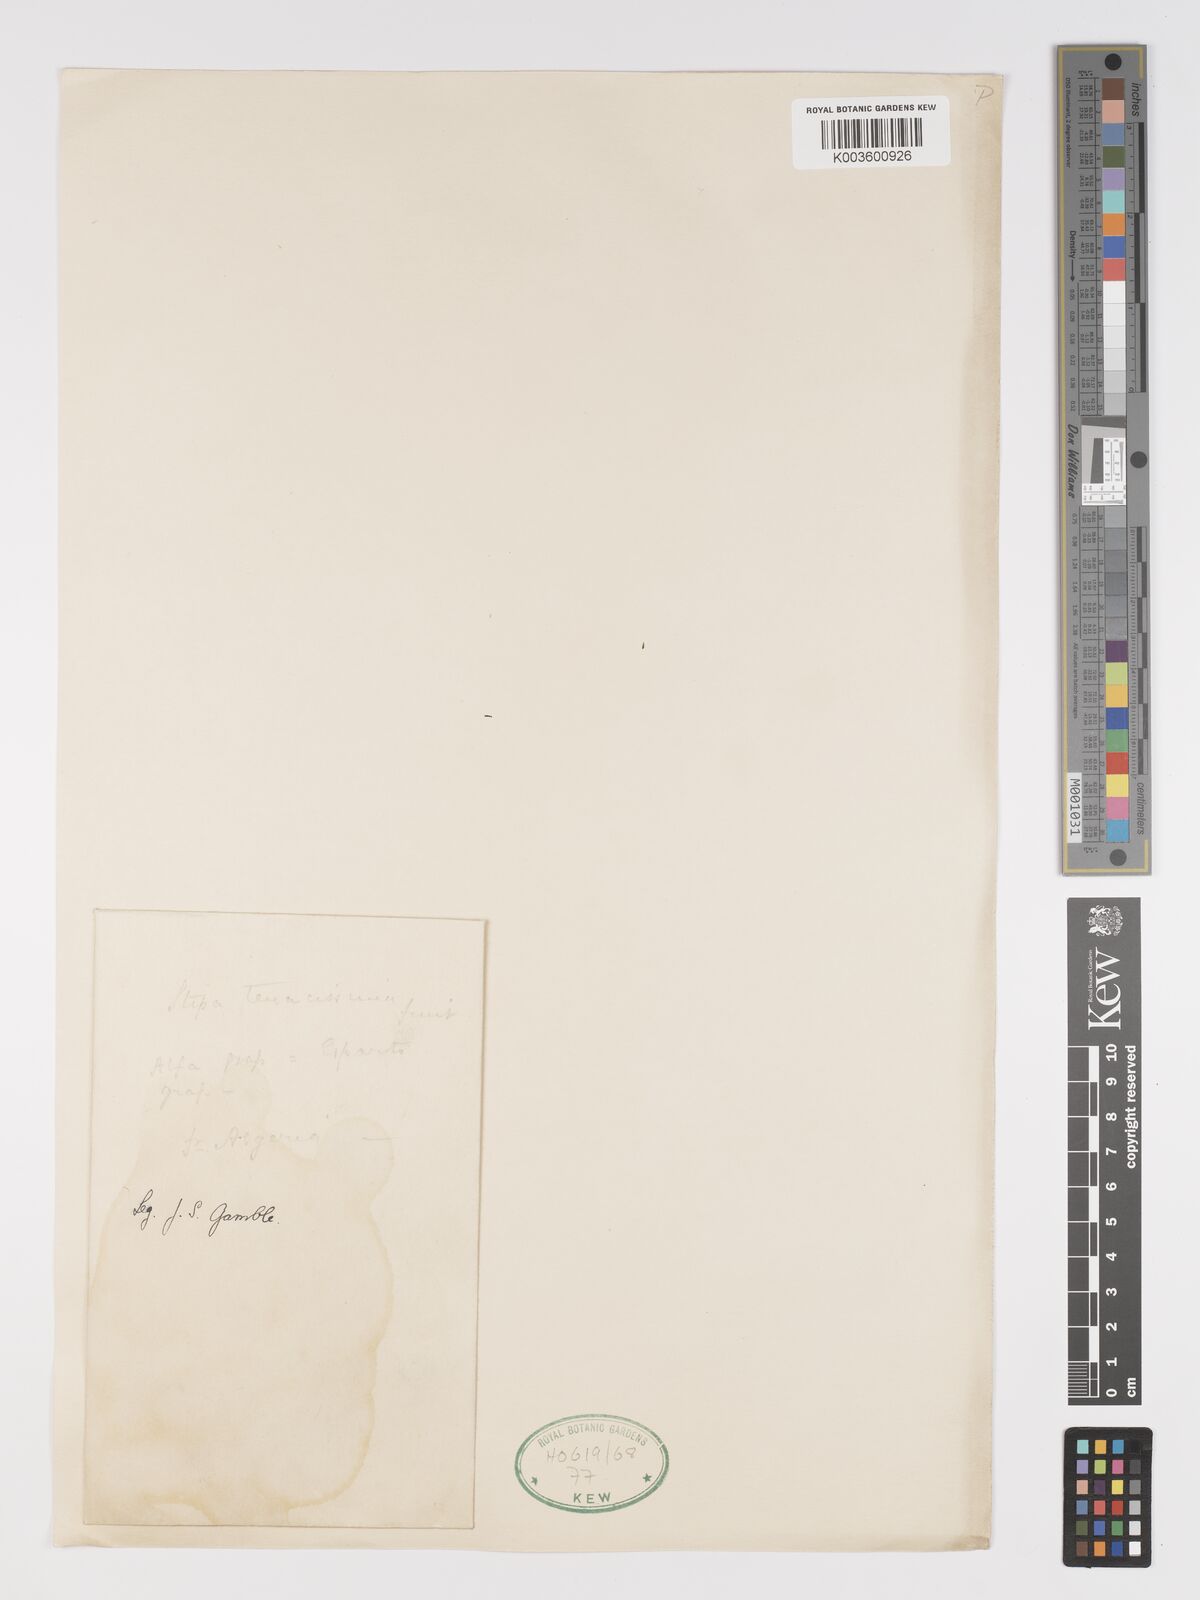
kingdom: Plantae
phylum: Tracheophyta
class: Liliopsida
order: Poales
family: Poaceae
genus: Macrochloa
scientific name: Macrochloa tenacissima
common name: Alfa grass
